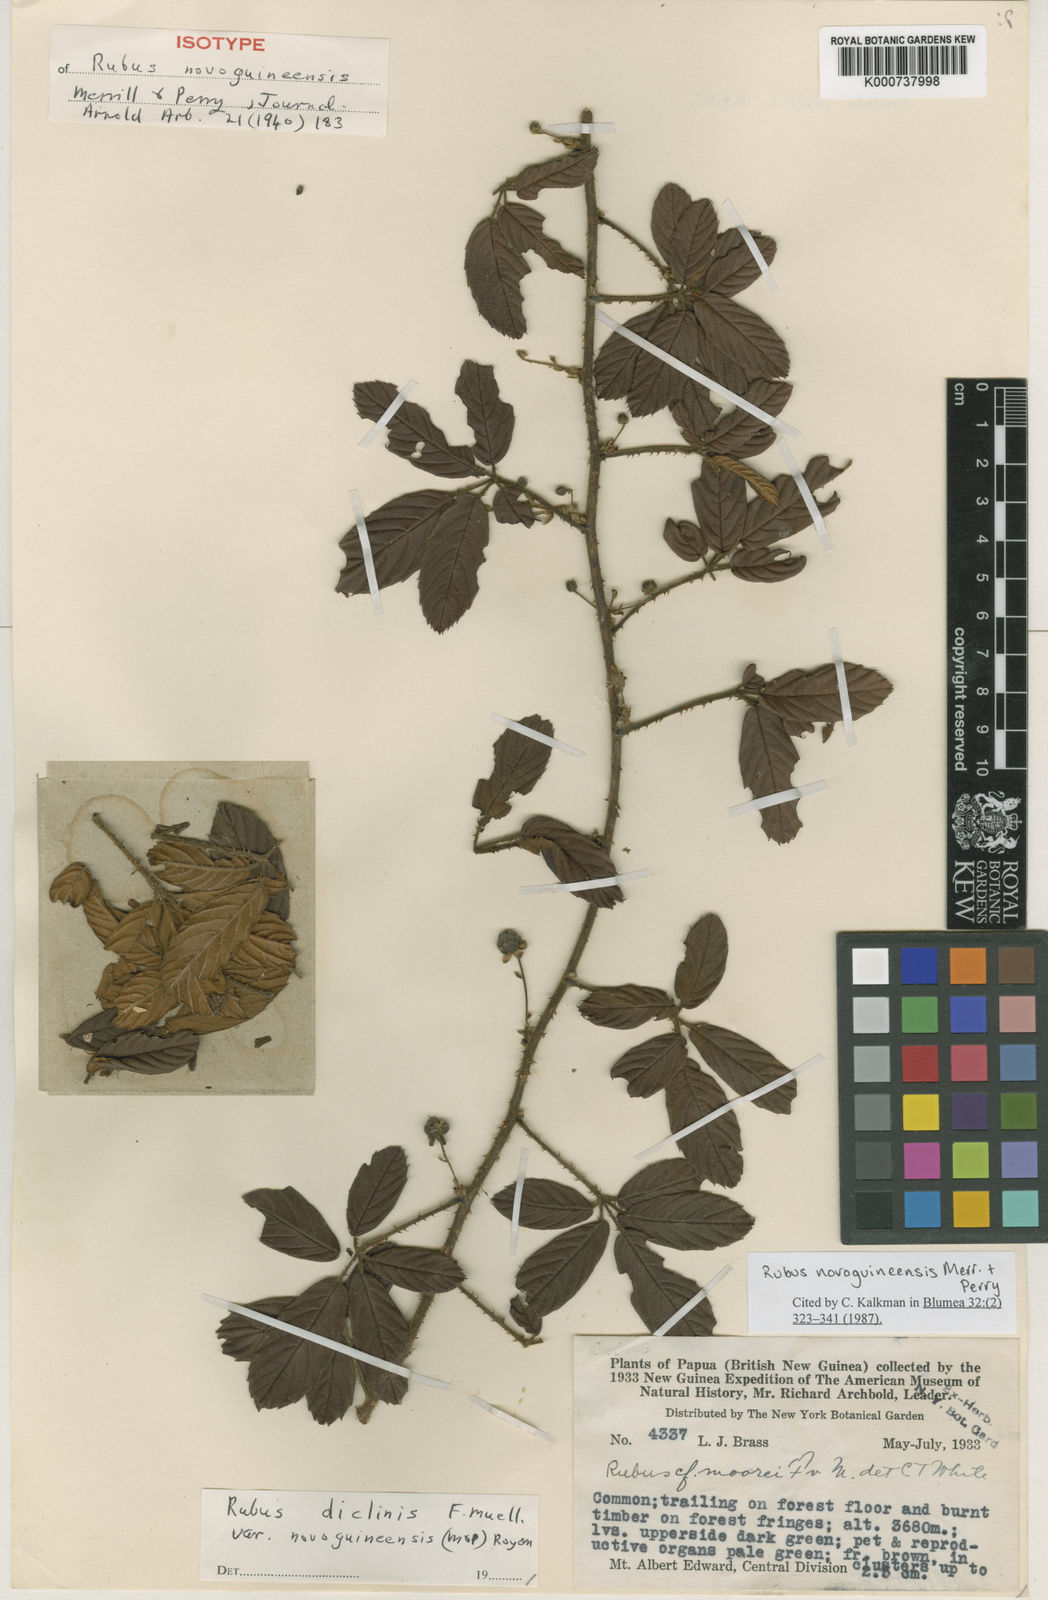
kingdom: Plantae
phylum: Tracheophyta
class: Magnoliopsida
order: Rosales
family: Rosaceae
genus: Rubus
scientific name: Rubus novoguineensis
